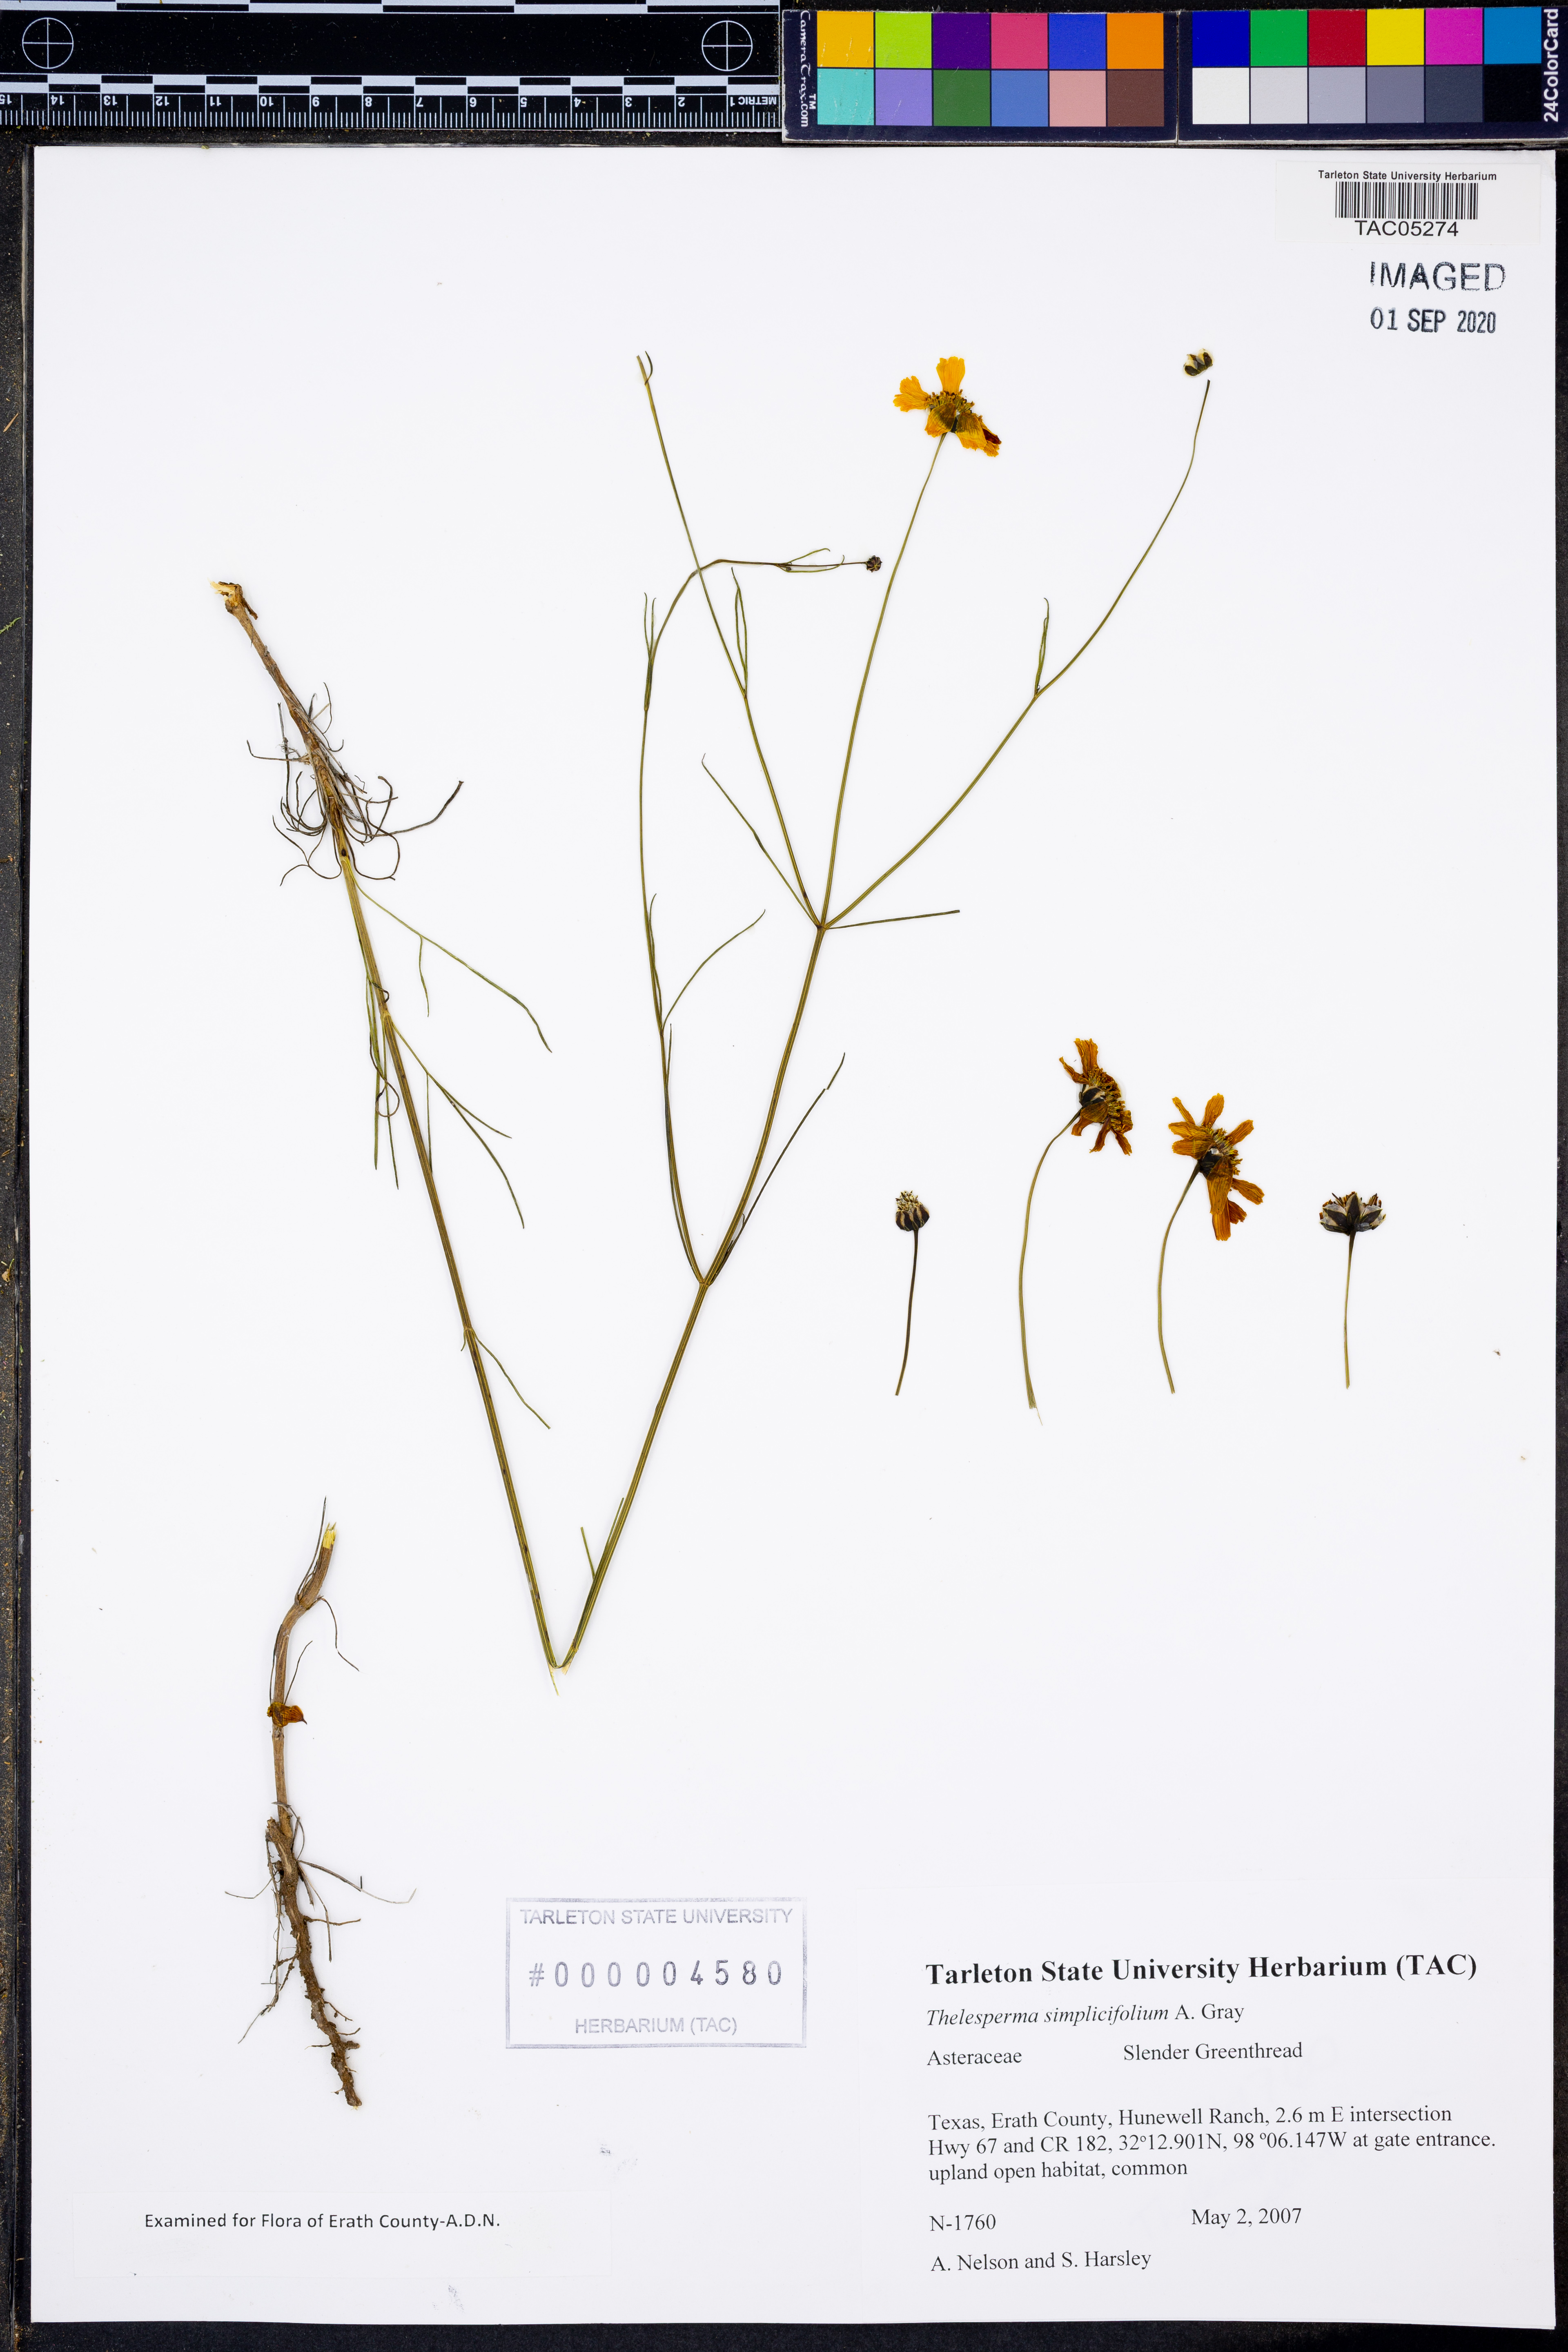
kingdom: Plantae
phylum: Tracheophyta
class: Magnoliopsida
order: Asterales
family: Asteraceae
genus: Thelesperma
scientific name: Thelesperma simplicifolium
